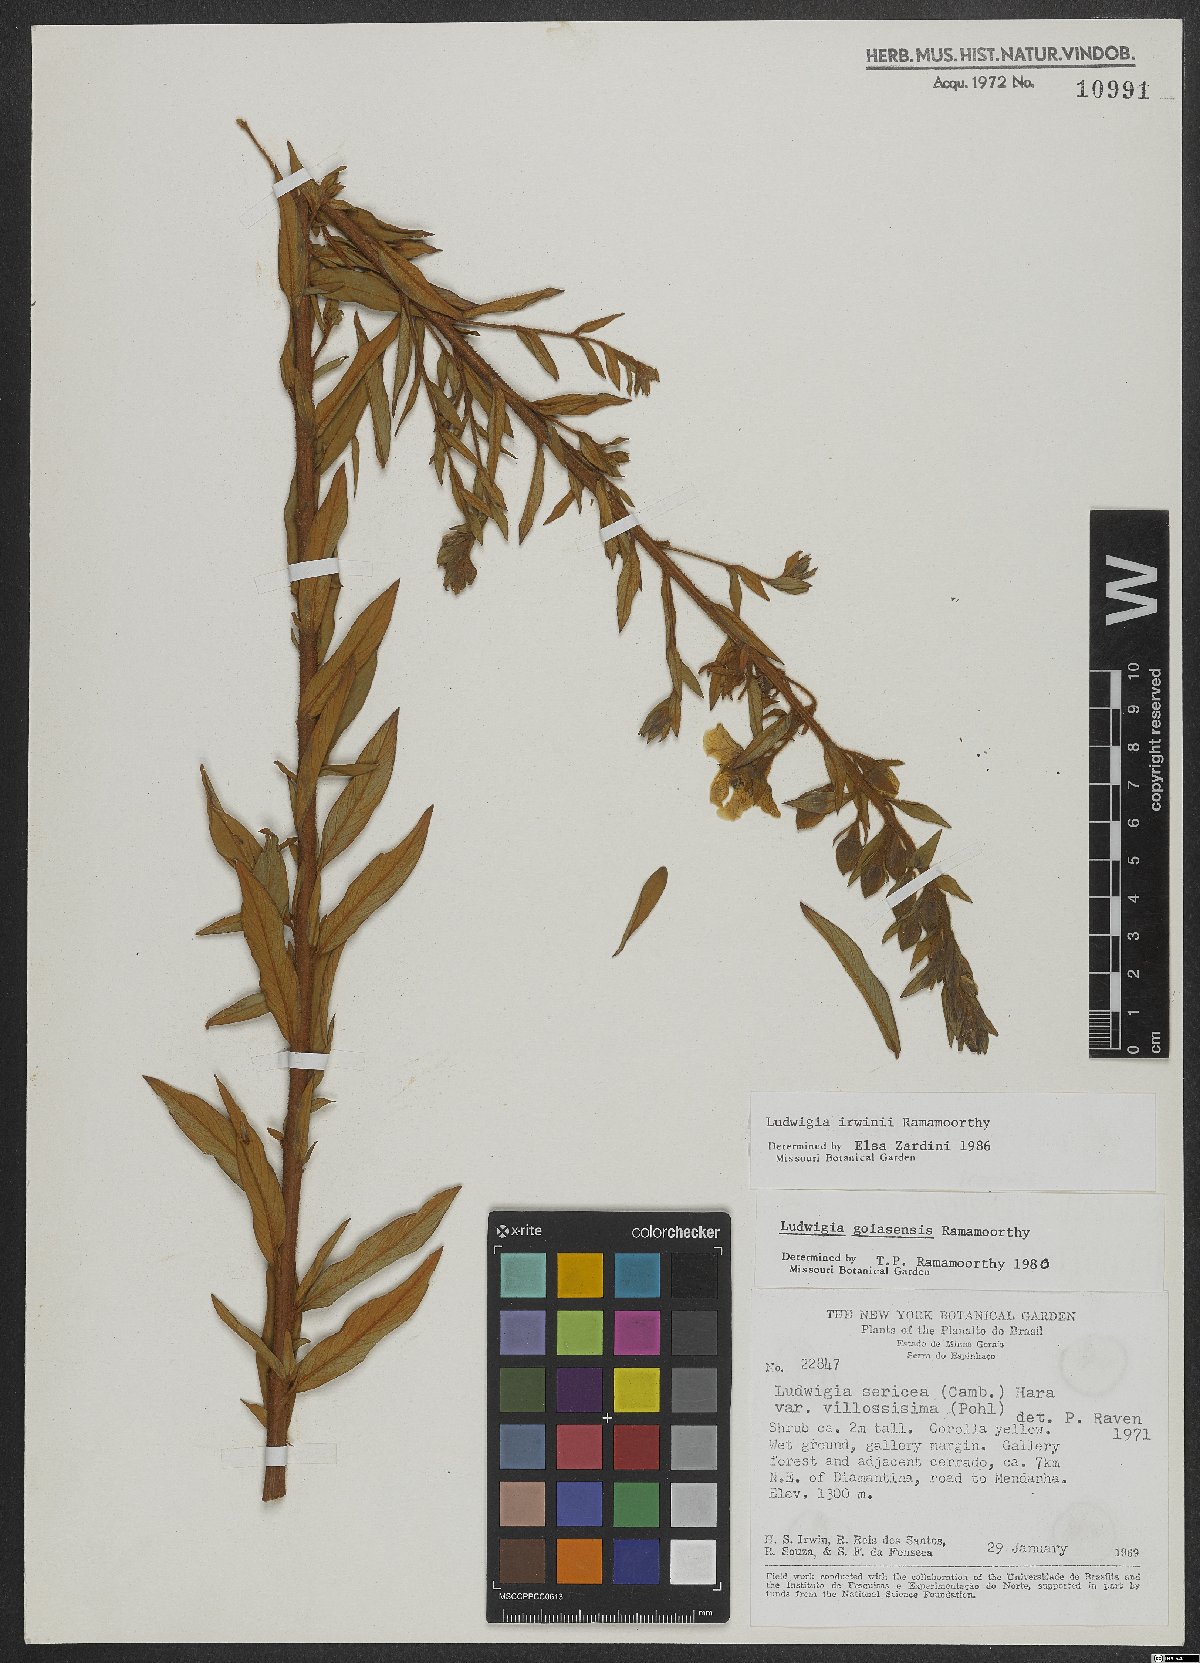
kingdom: Plantae
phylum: Tracheophyta
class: Magnoliopsida
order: Myrtales
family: Onagraceae
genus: Ludwigia
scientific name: Ludwigia irwinii
